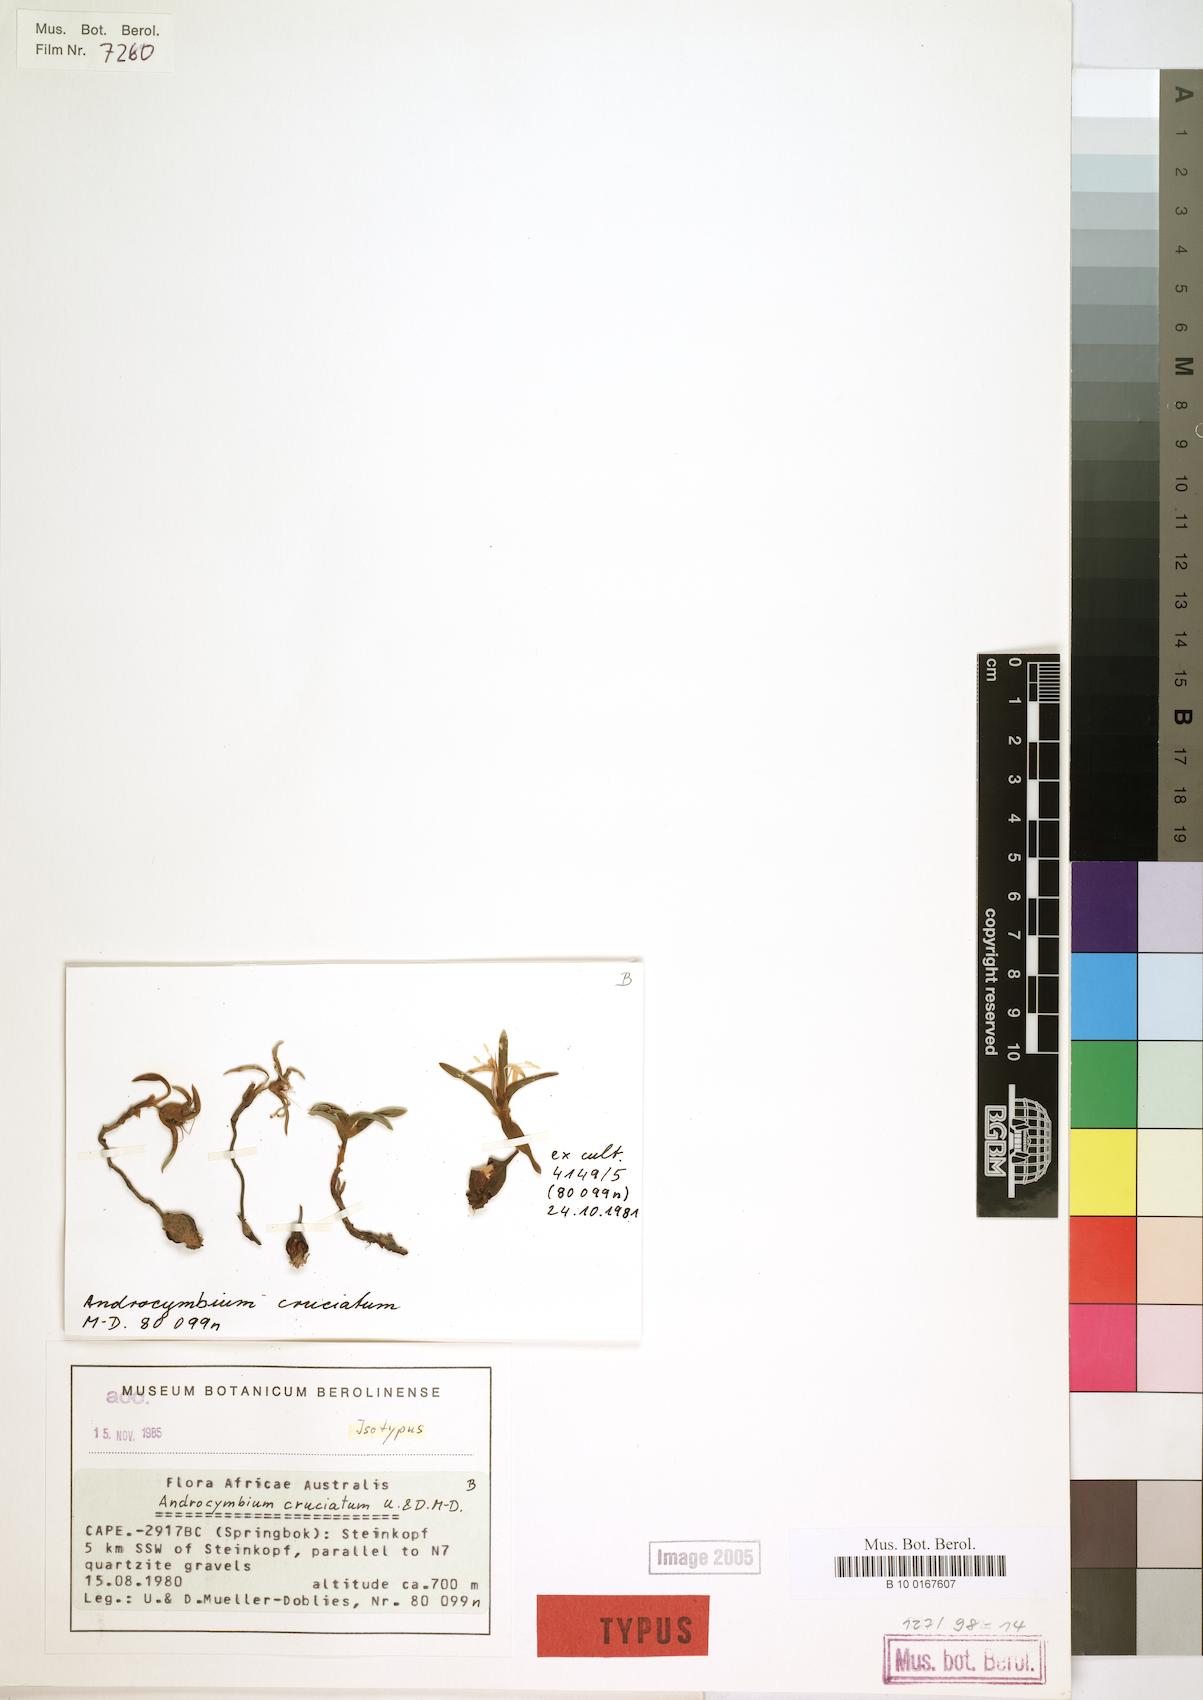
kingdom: Plantae
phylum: Tracheophyta
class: Liliopsida
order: Liliales
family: Colchicaceae
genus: Colchicum
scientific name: Colchicum cruciatum
